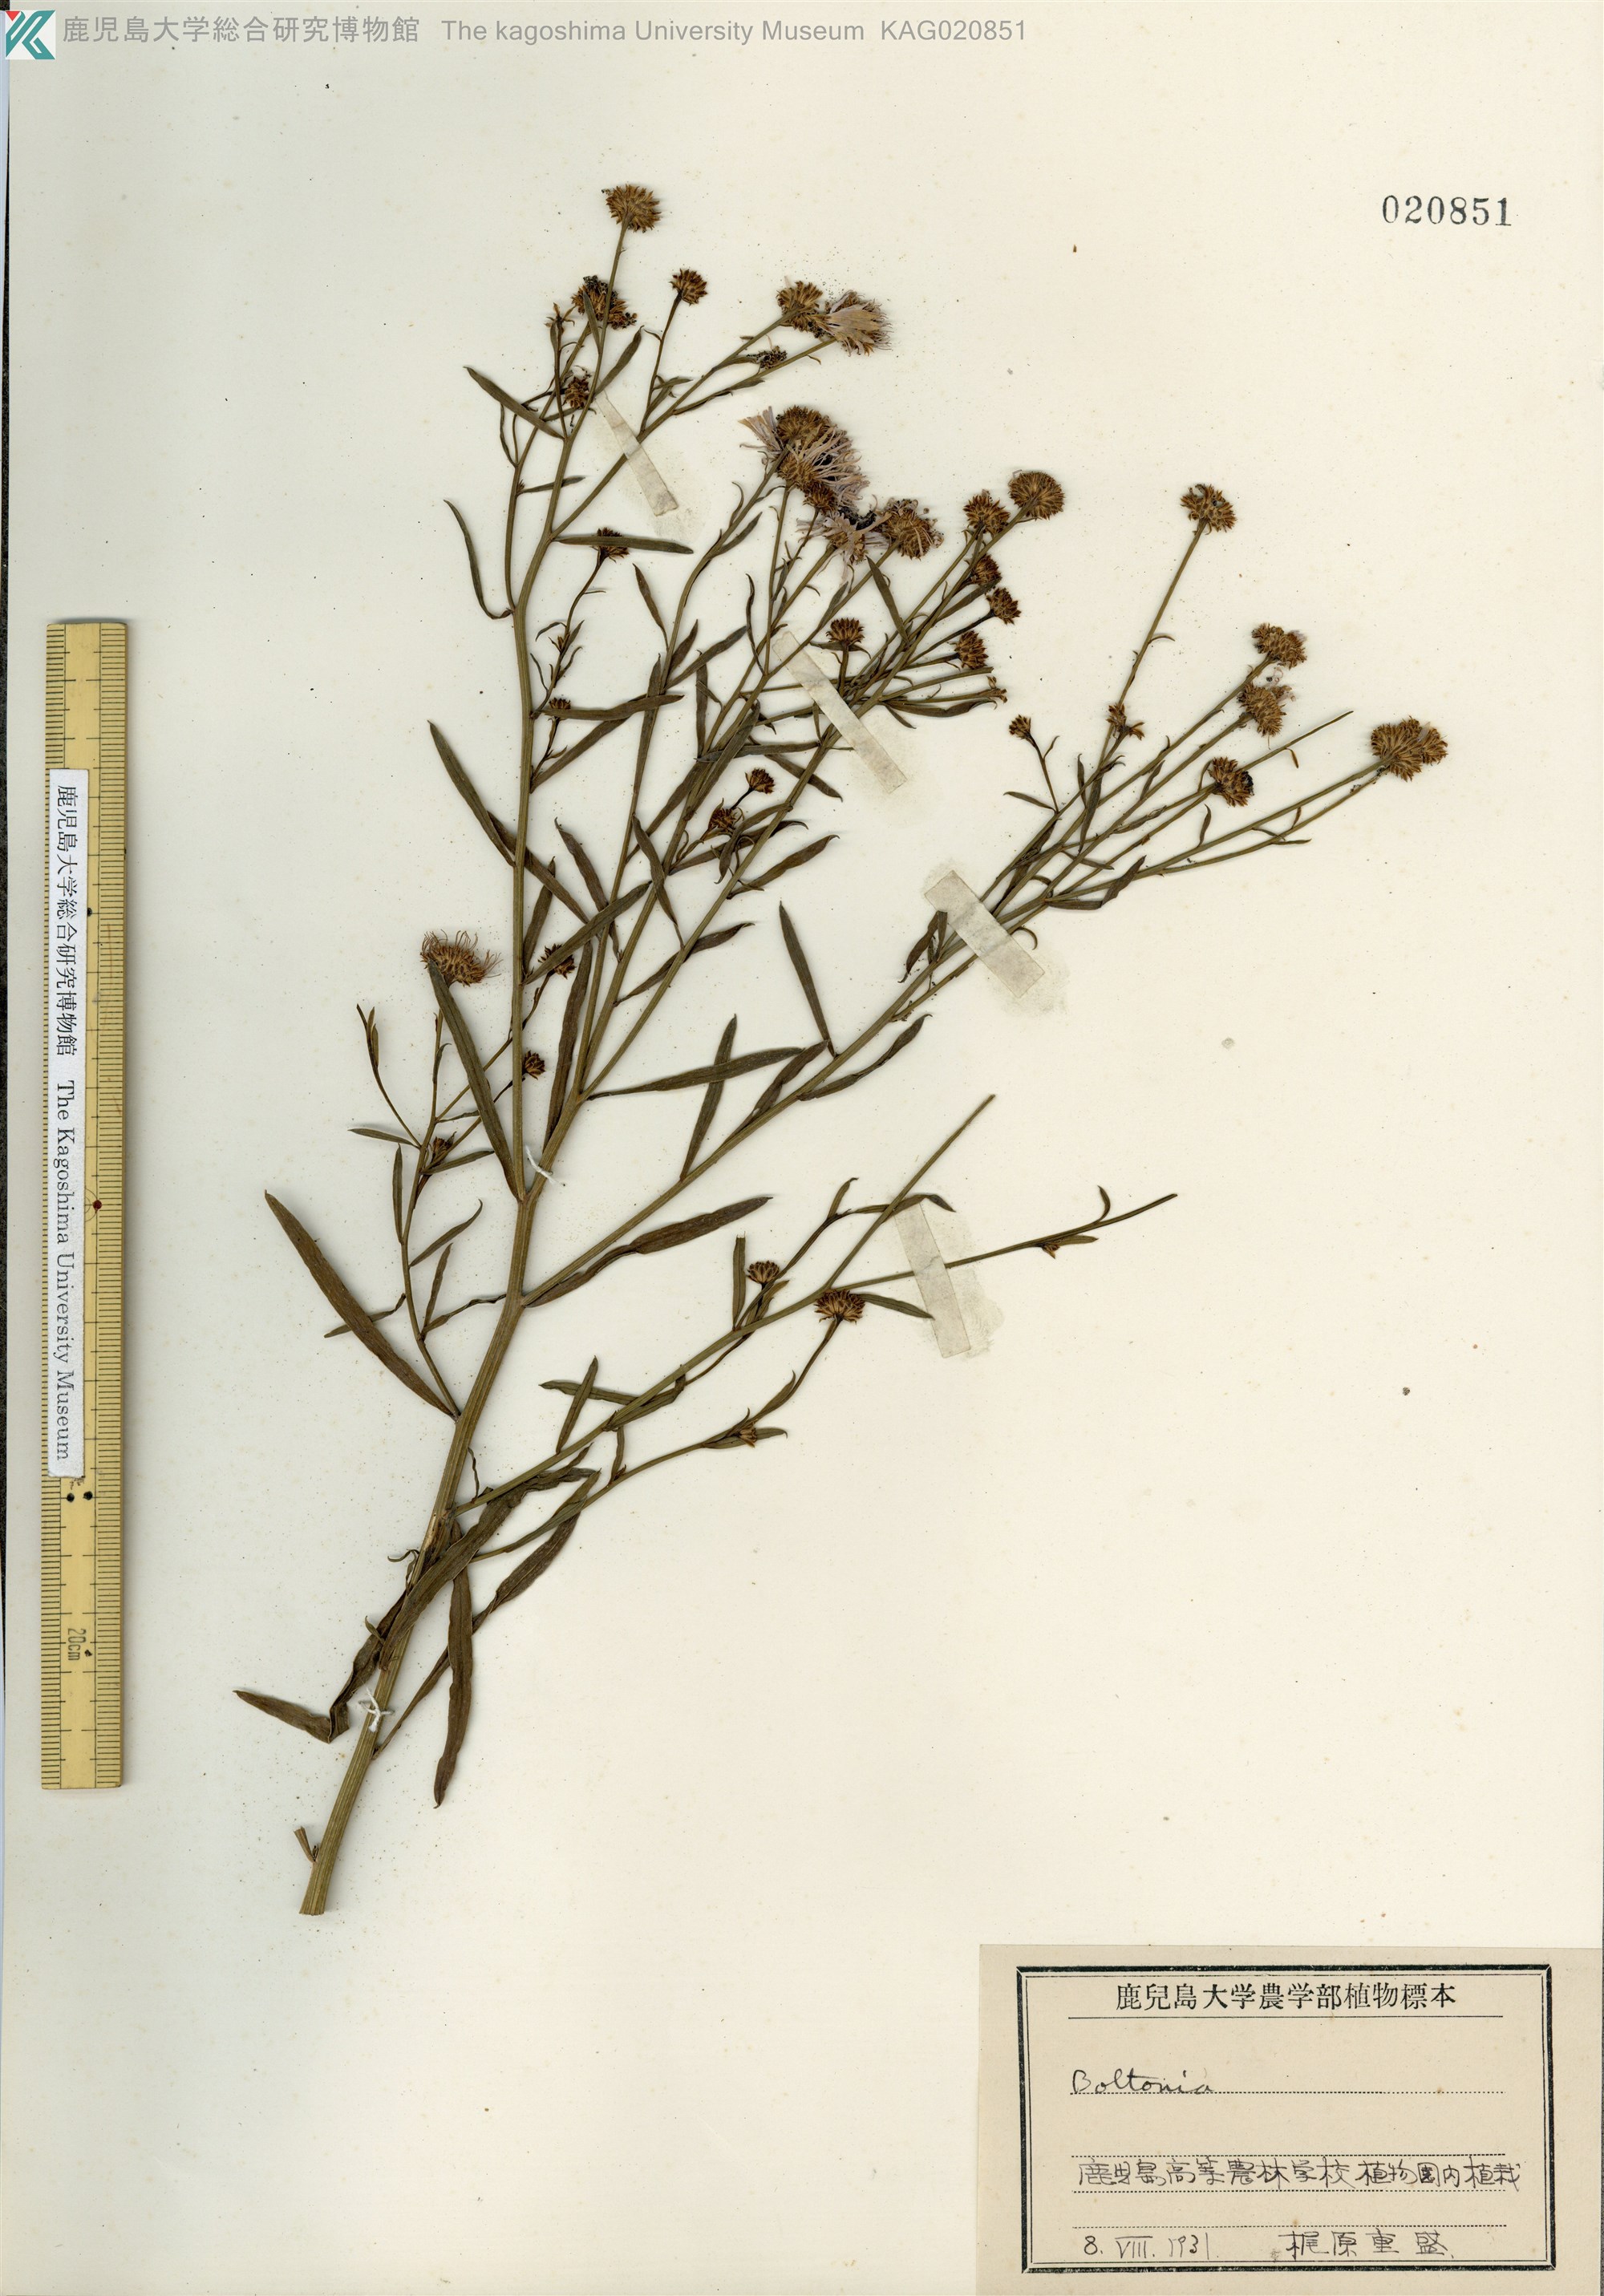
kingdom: Plantae
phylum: Tracheophyta
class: Magnoliopsida
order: Asterales
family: Asteraceae
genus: Boltonia
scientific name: Boltonia asteroides
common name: False chamomile
